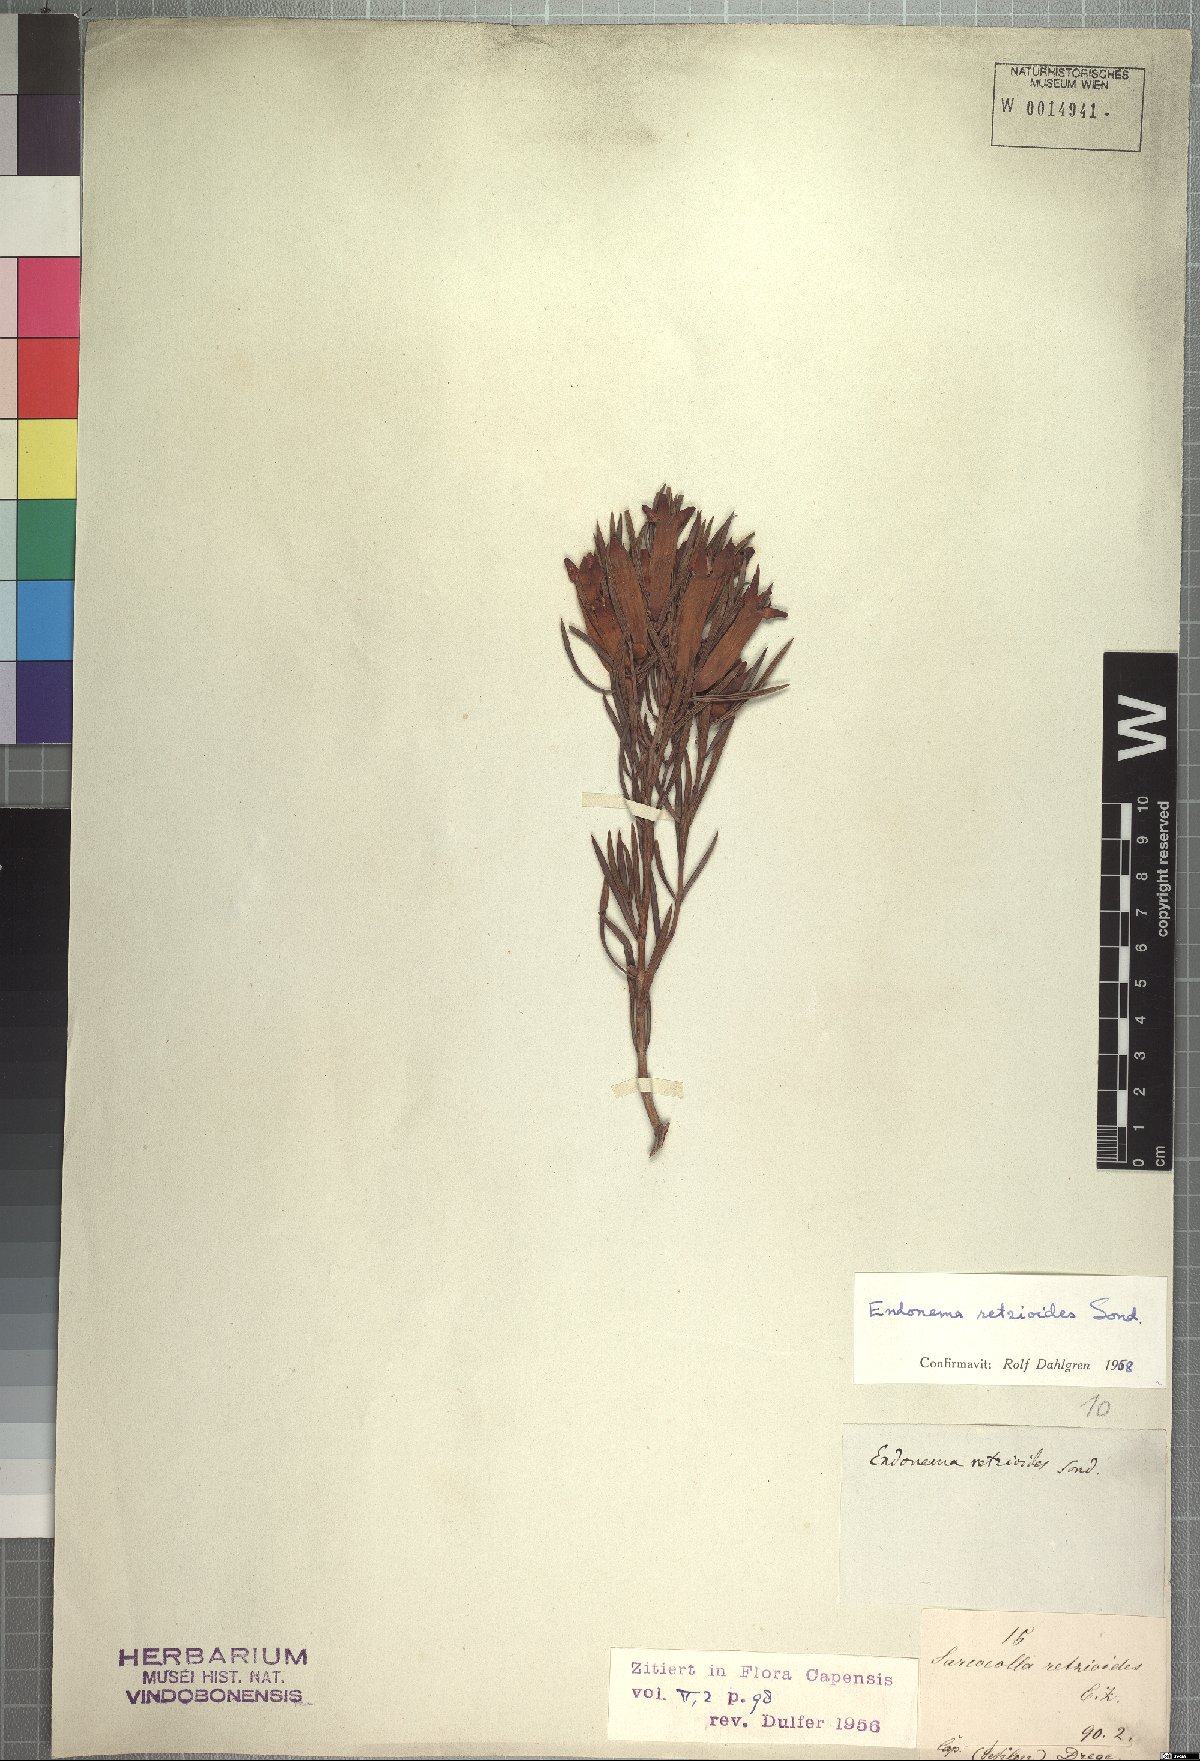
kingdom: Plantae
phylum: Tracheophyta
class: Magnoliopsida
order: Myrtales
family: Penaeaceae
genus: Endonema
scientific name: Endonema retzioides
